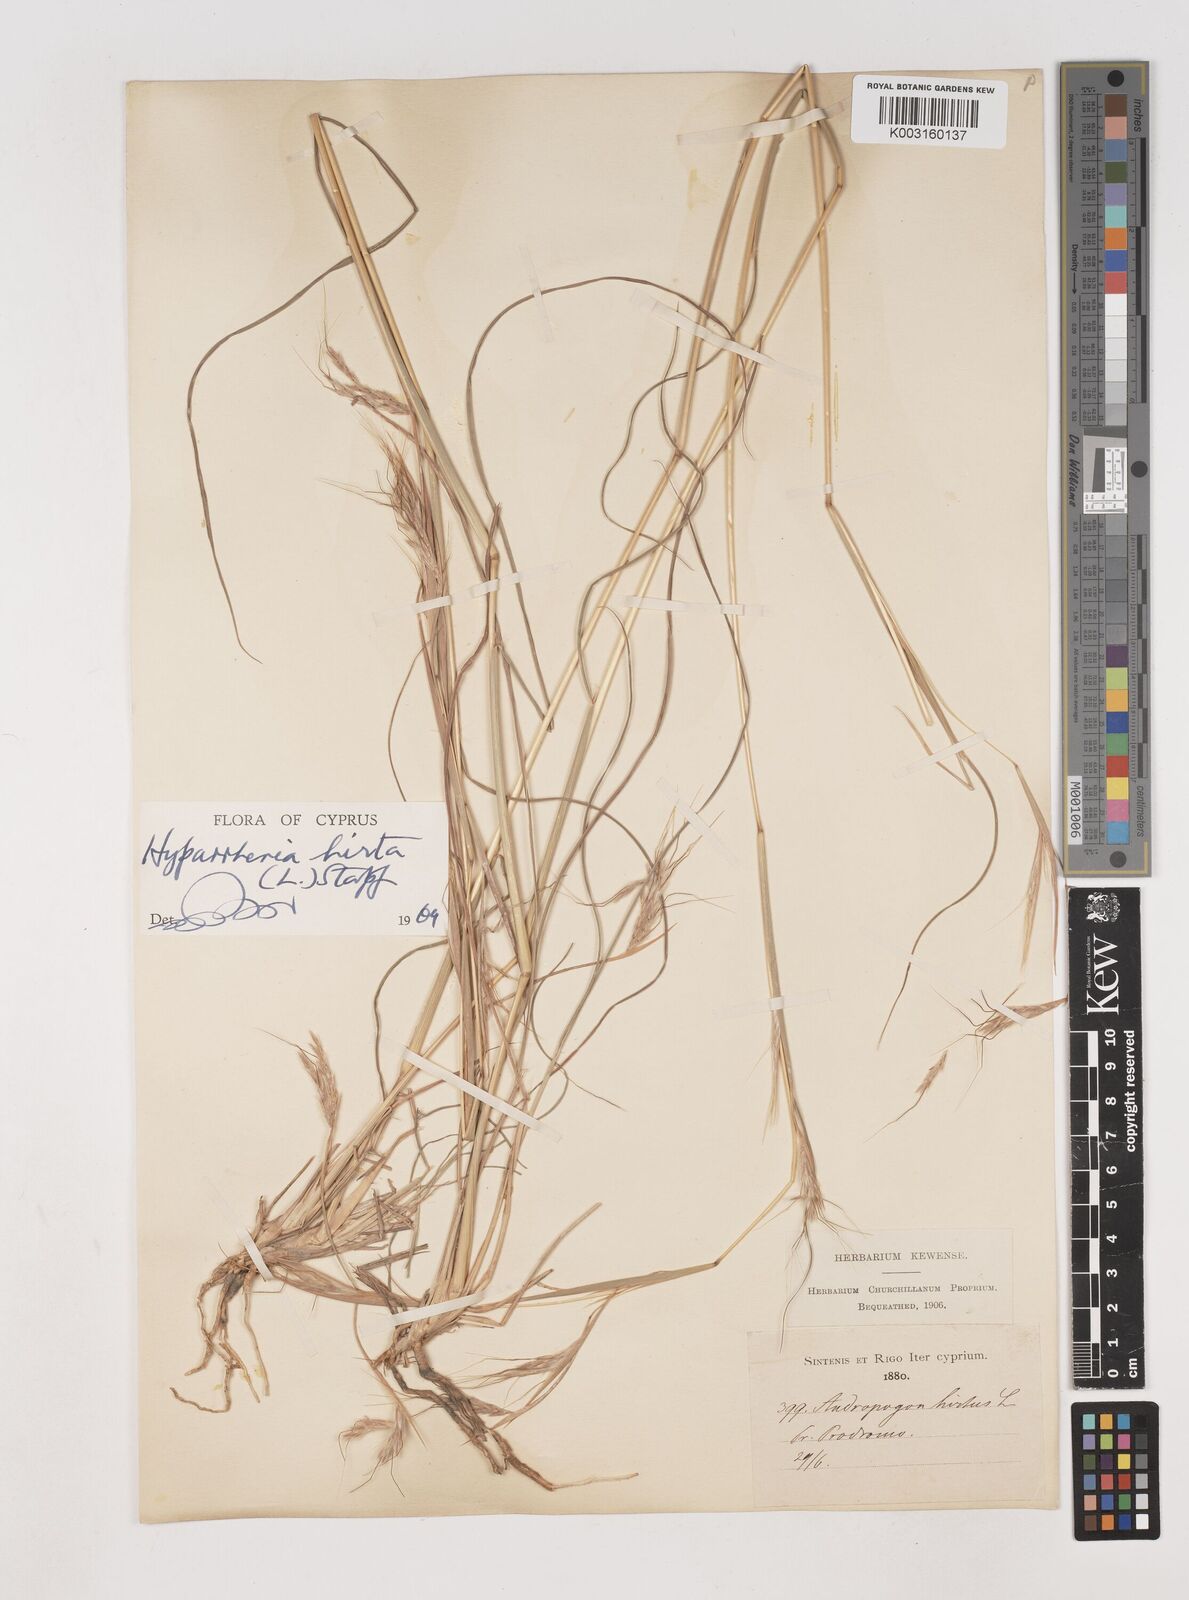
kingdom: Plantae
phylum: Tracheophyta
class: Liliopsida
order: Poales
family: Poaceae
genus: Hyparrhenia
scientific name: Hyparrhenia hirta
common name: Thatching grass
